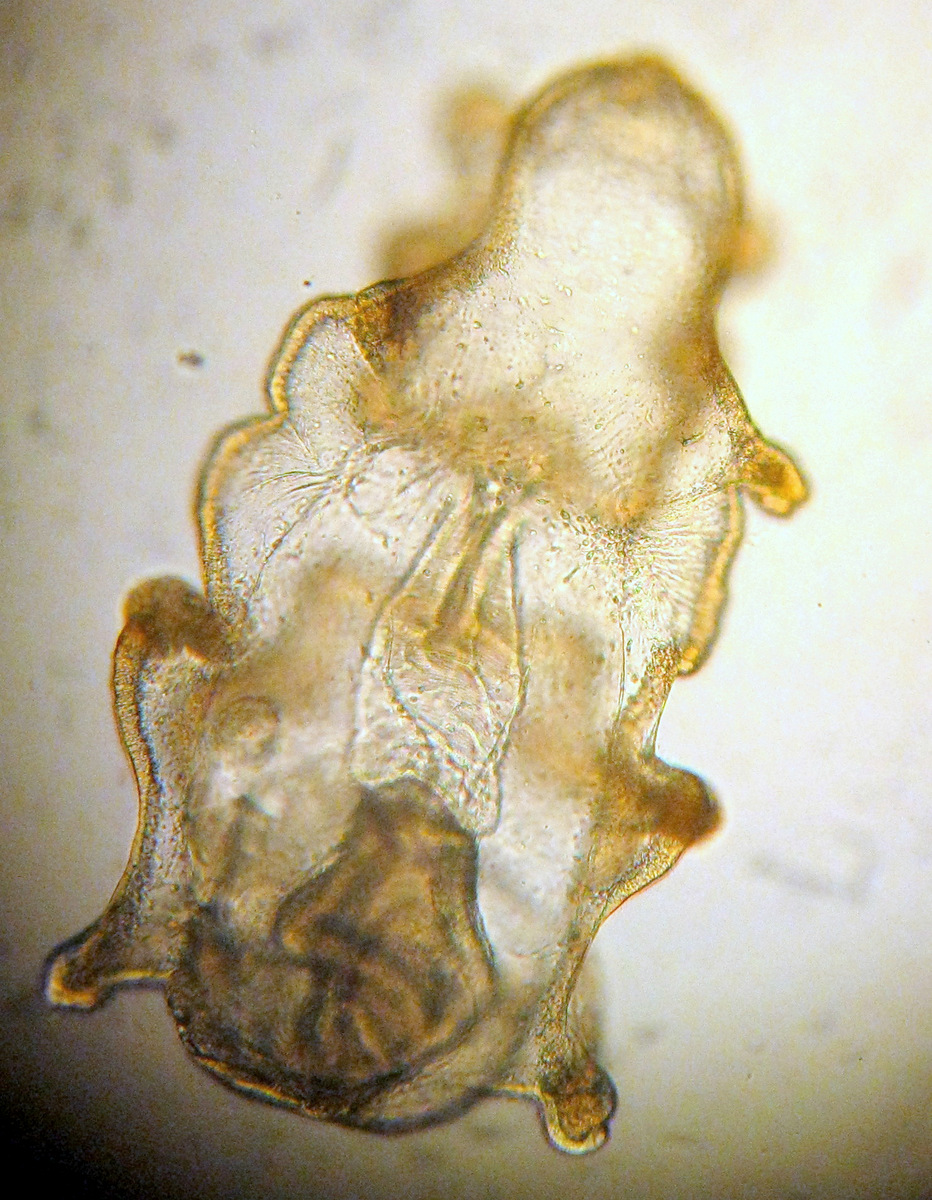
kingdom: Animalia
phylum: Echinodermata
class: Asteroidea
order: Forcipulatida
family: Asteriidae
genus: Asterias
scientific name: Asterias rubens
